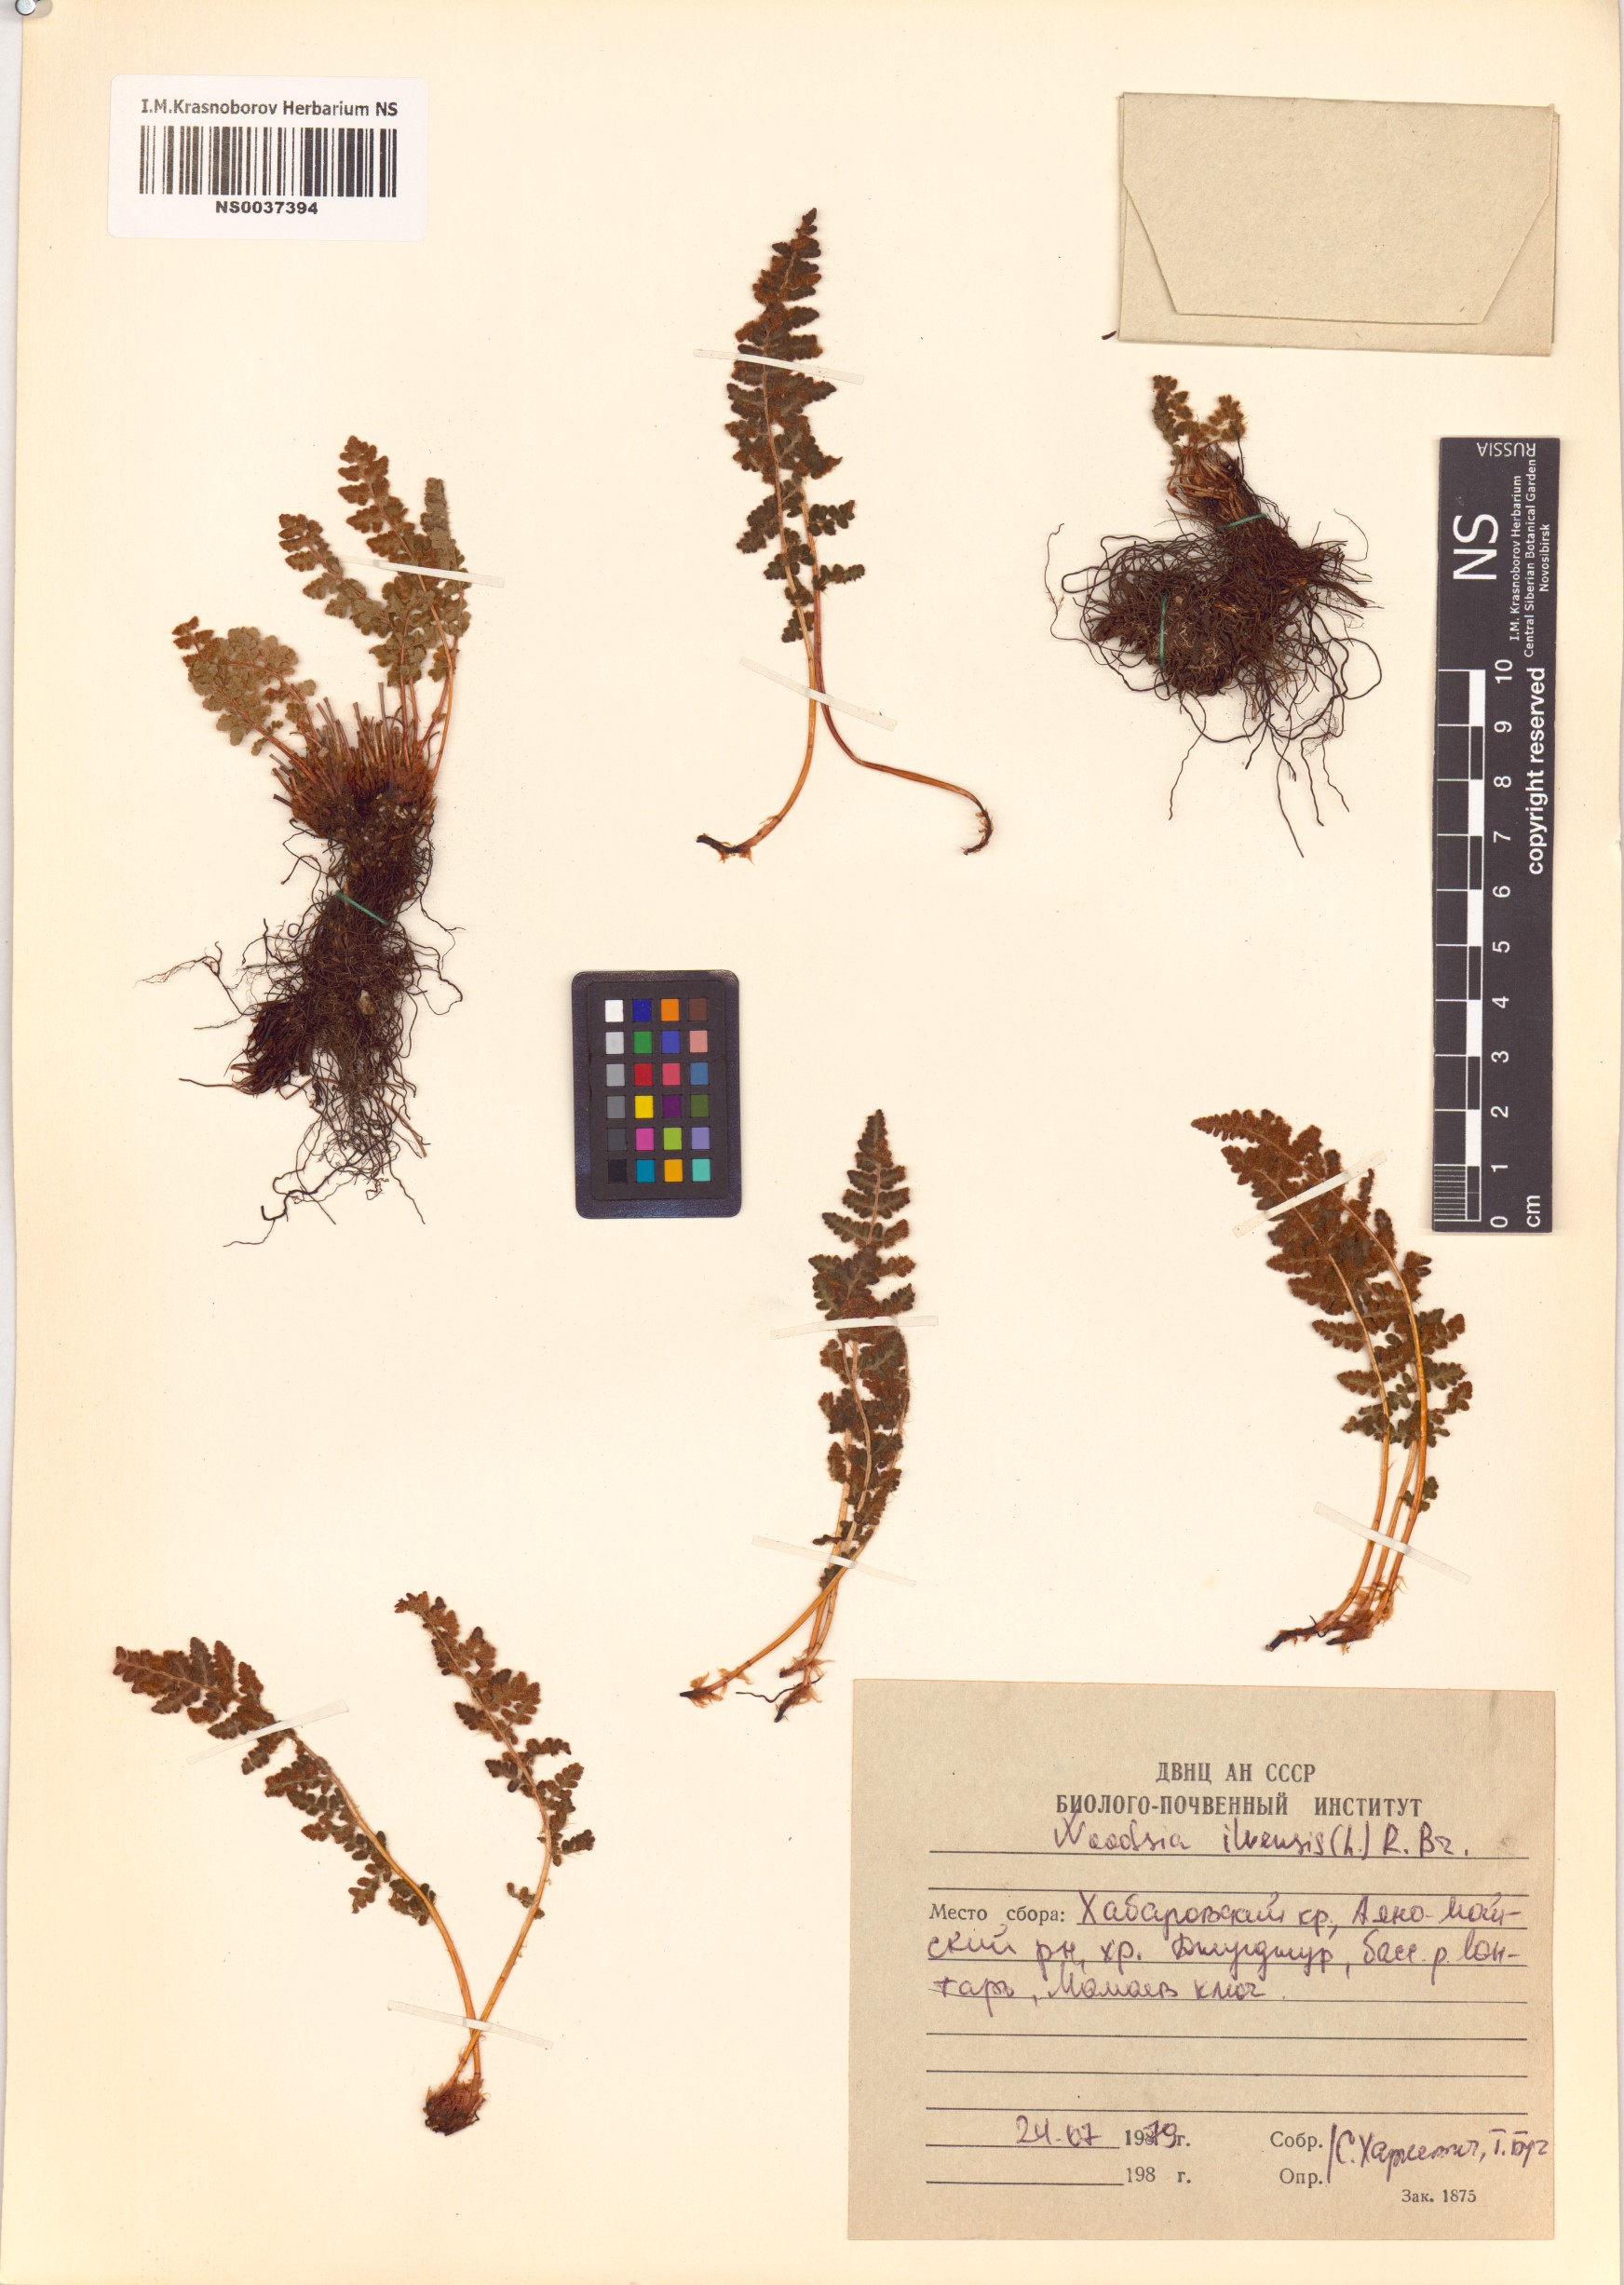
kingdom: Plantae
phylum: Tracheophyta
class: Polypodiopsida
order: Polypodiales
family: Woodsiaceae
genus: Woodsia
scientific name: Woodsia ilvensis
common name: Fragrant woodsia
